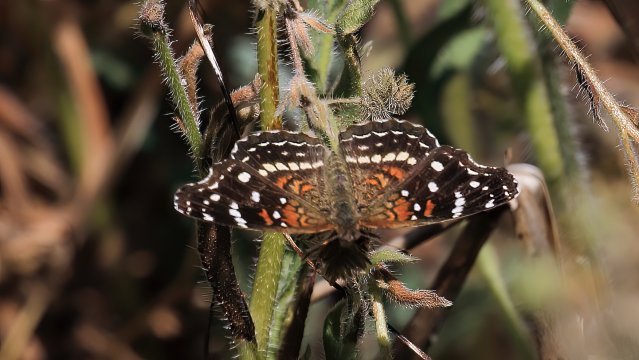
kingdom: Animalia
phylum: Arthropoda
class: Insecta
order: Lepidoptera
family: Nymphalidae
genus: Anthanassa
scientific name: Anthanassa texana
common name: Texan Crescent
